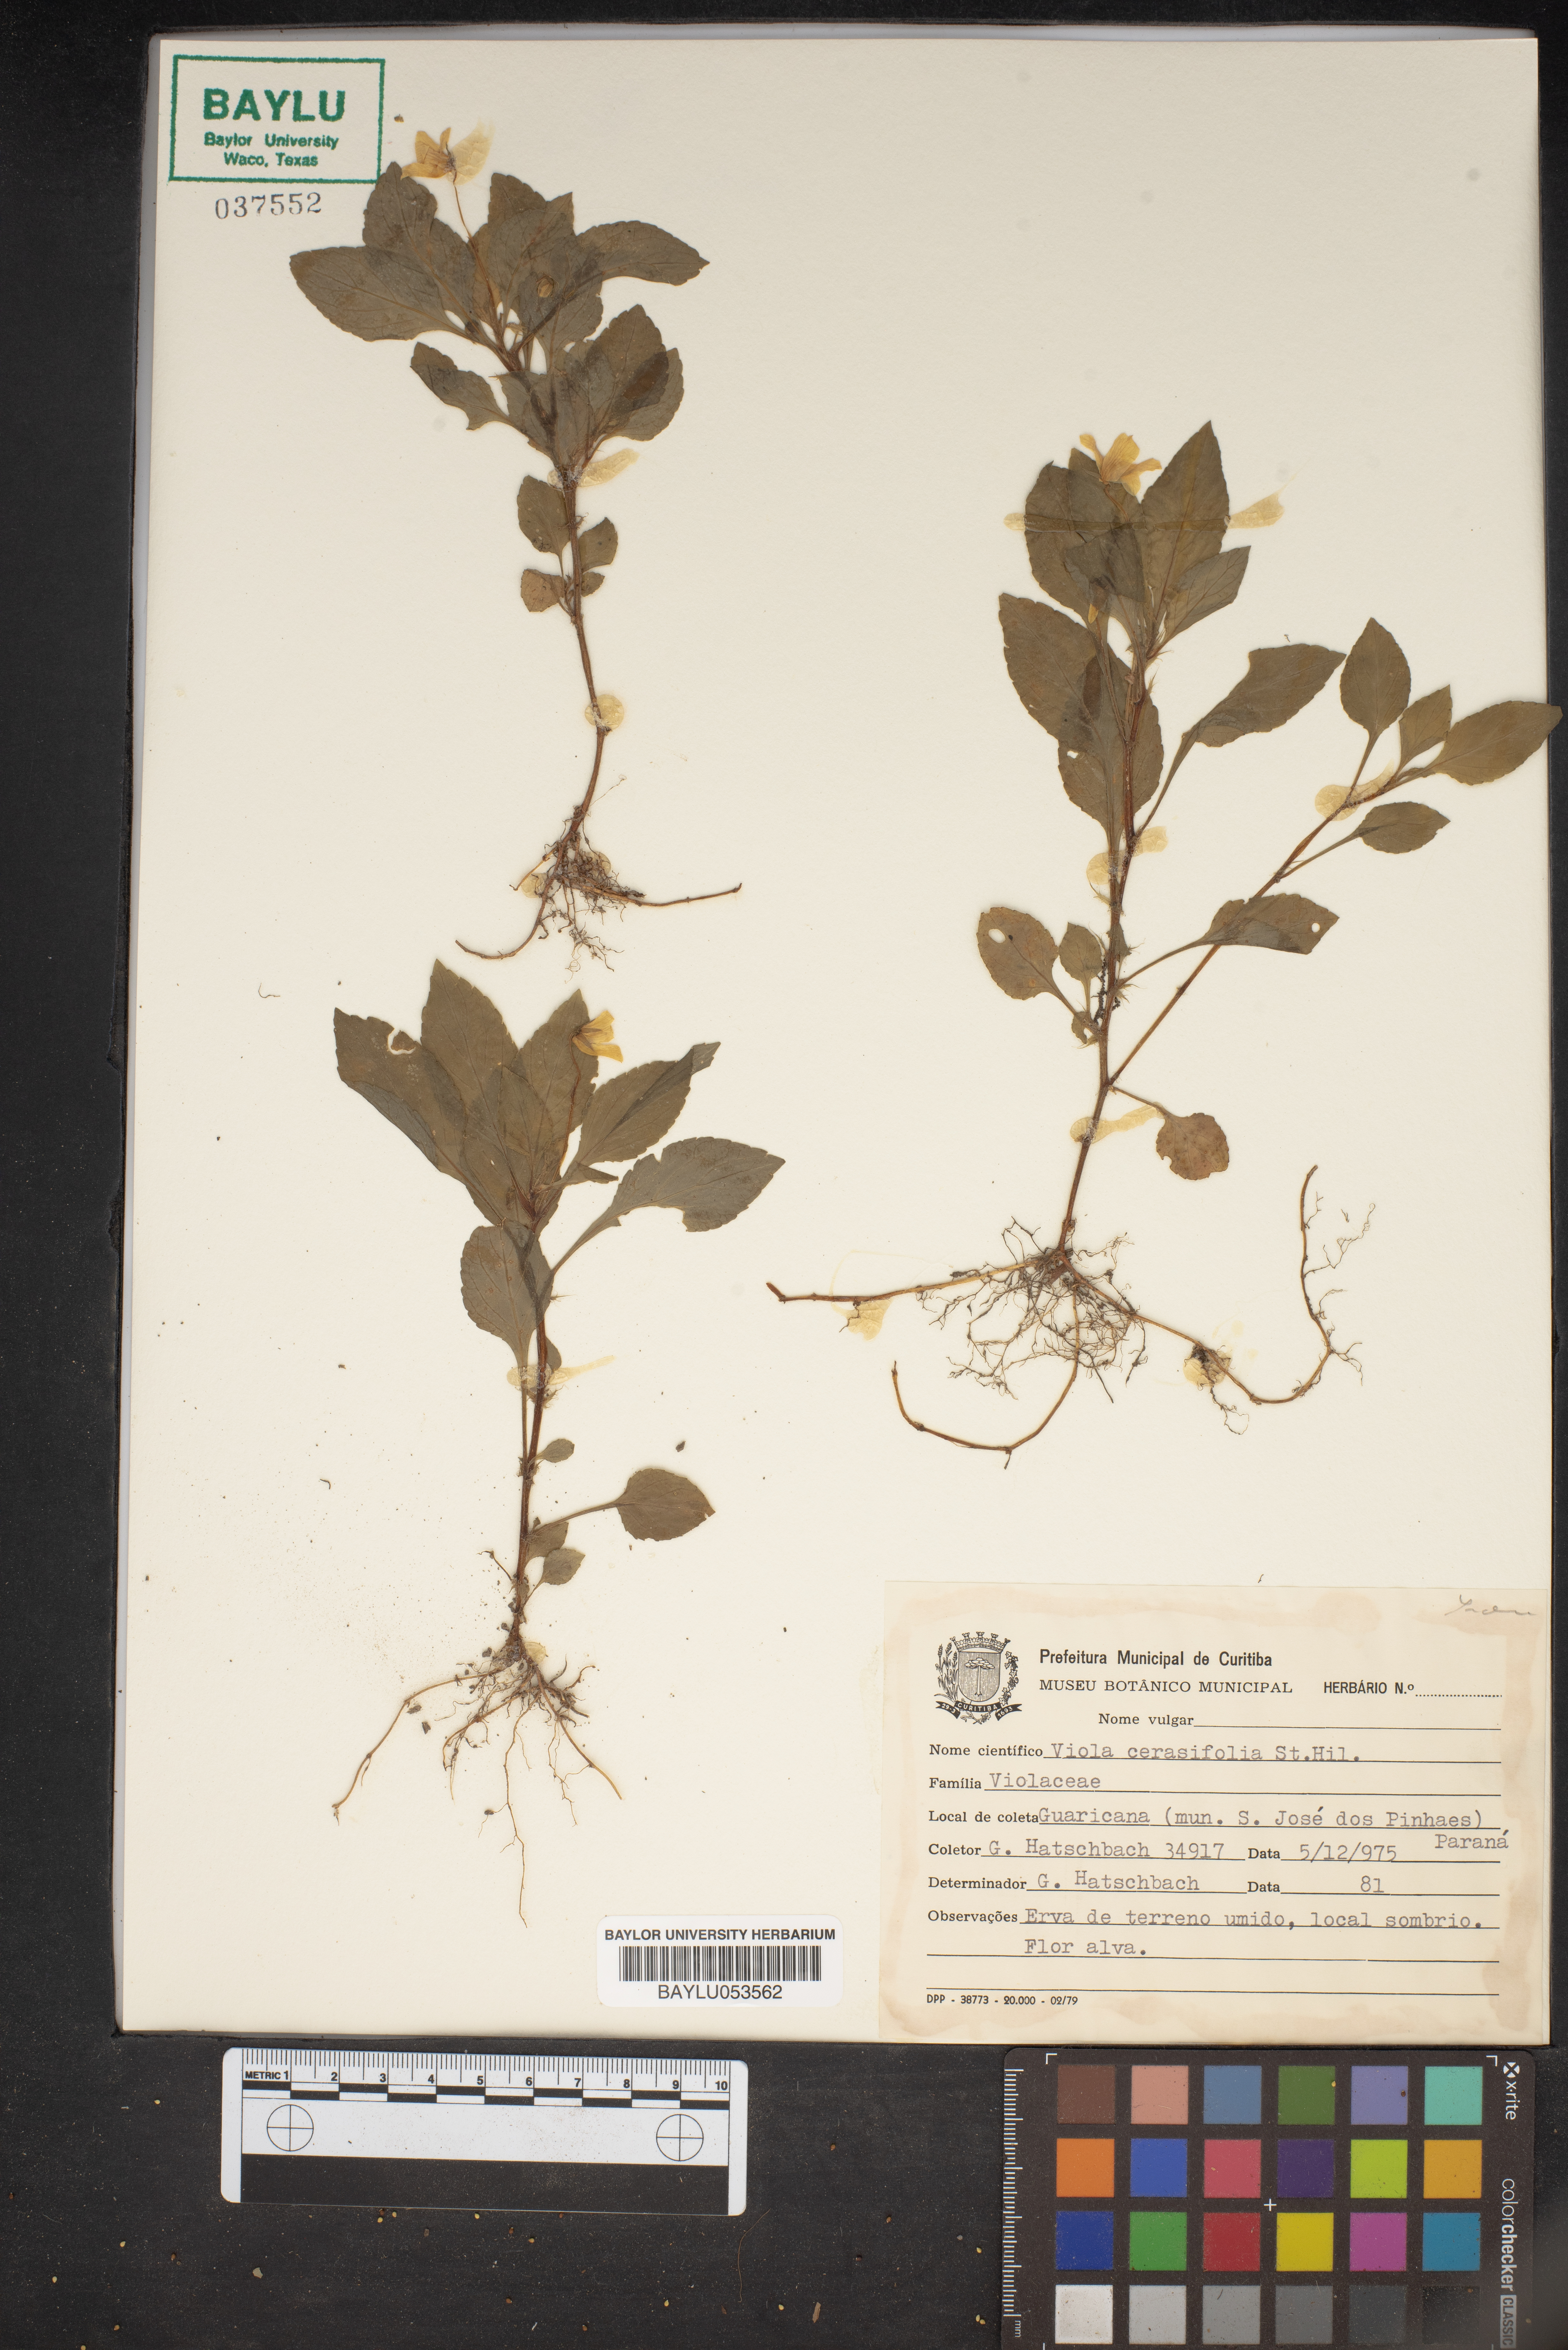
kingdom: Plantae
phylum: Tracheophyta
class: Magnoliopsida
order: Malpighiales
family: Violaceae
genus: Viola
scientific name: Viola cerasifolia
